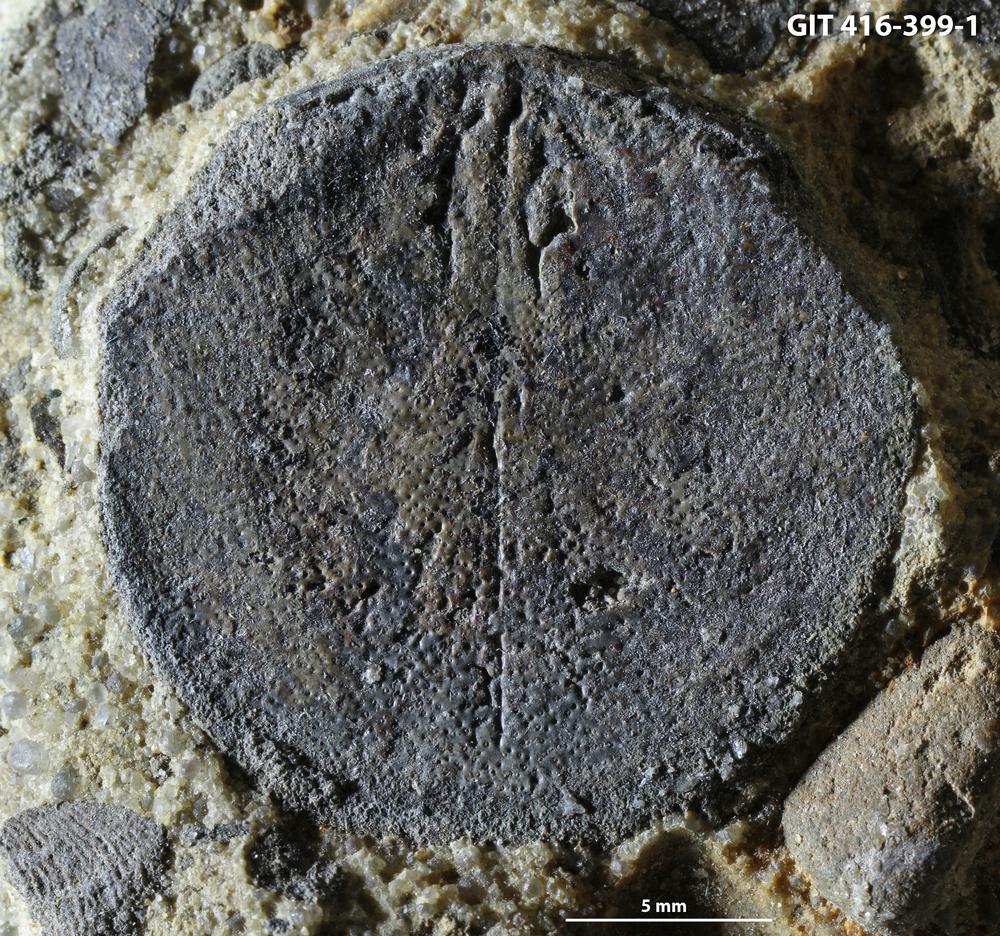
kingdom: Animalia
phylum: Brachiopoda
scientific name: Brachiopoda
